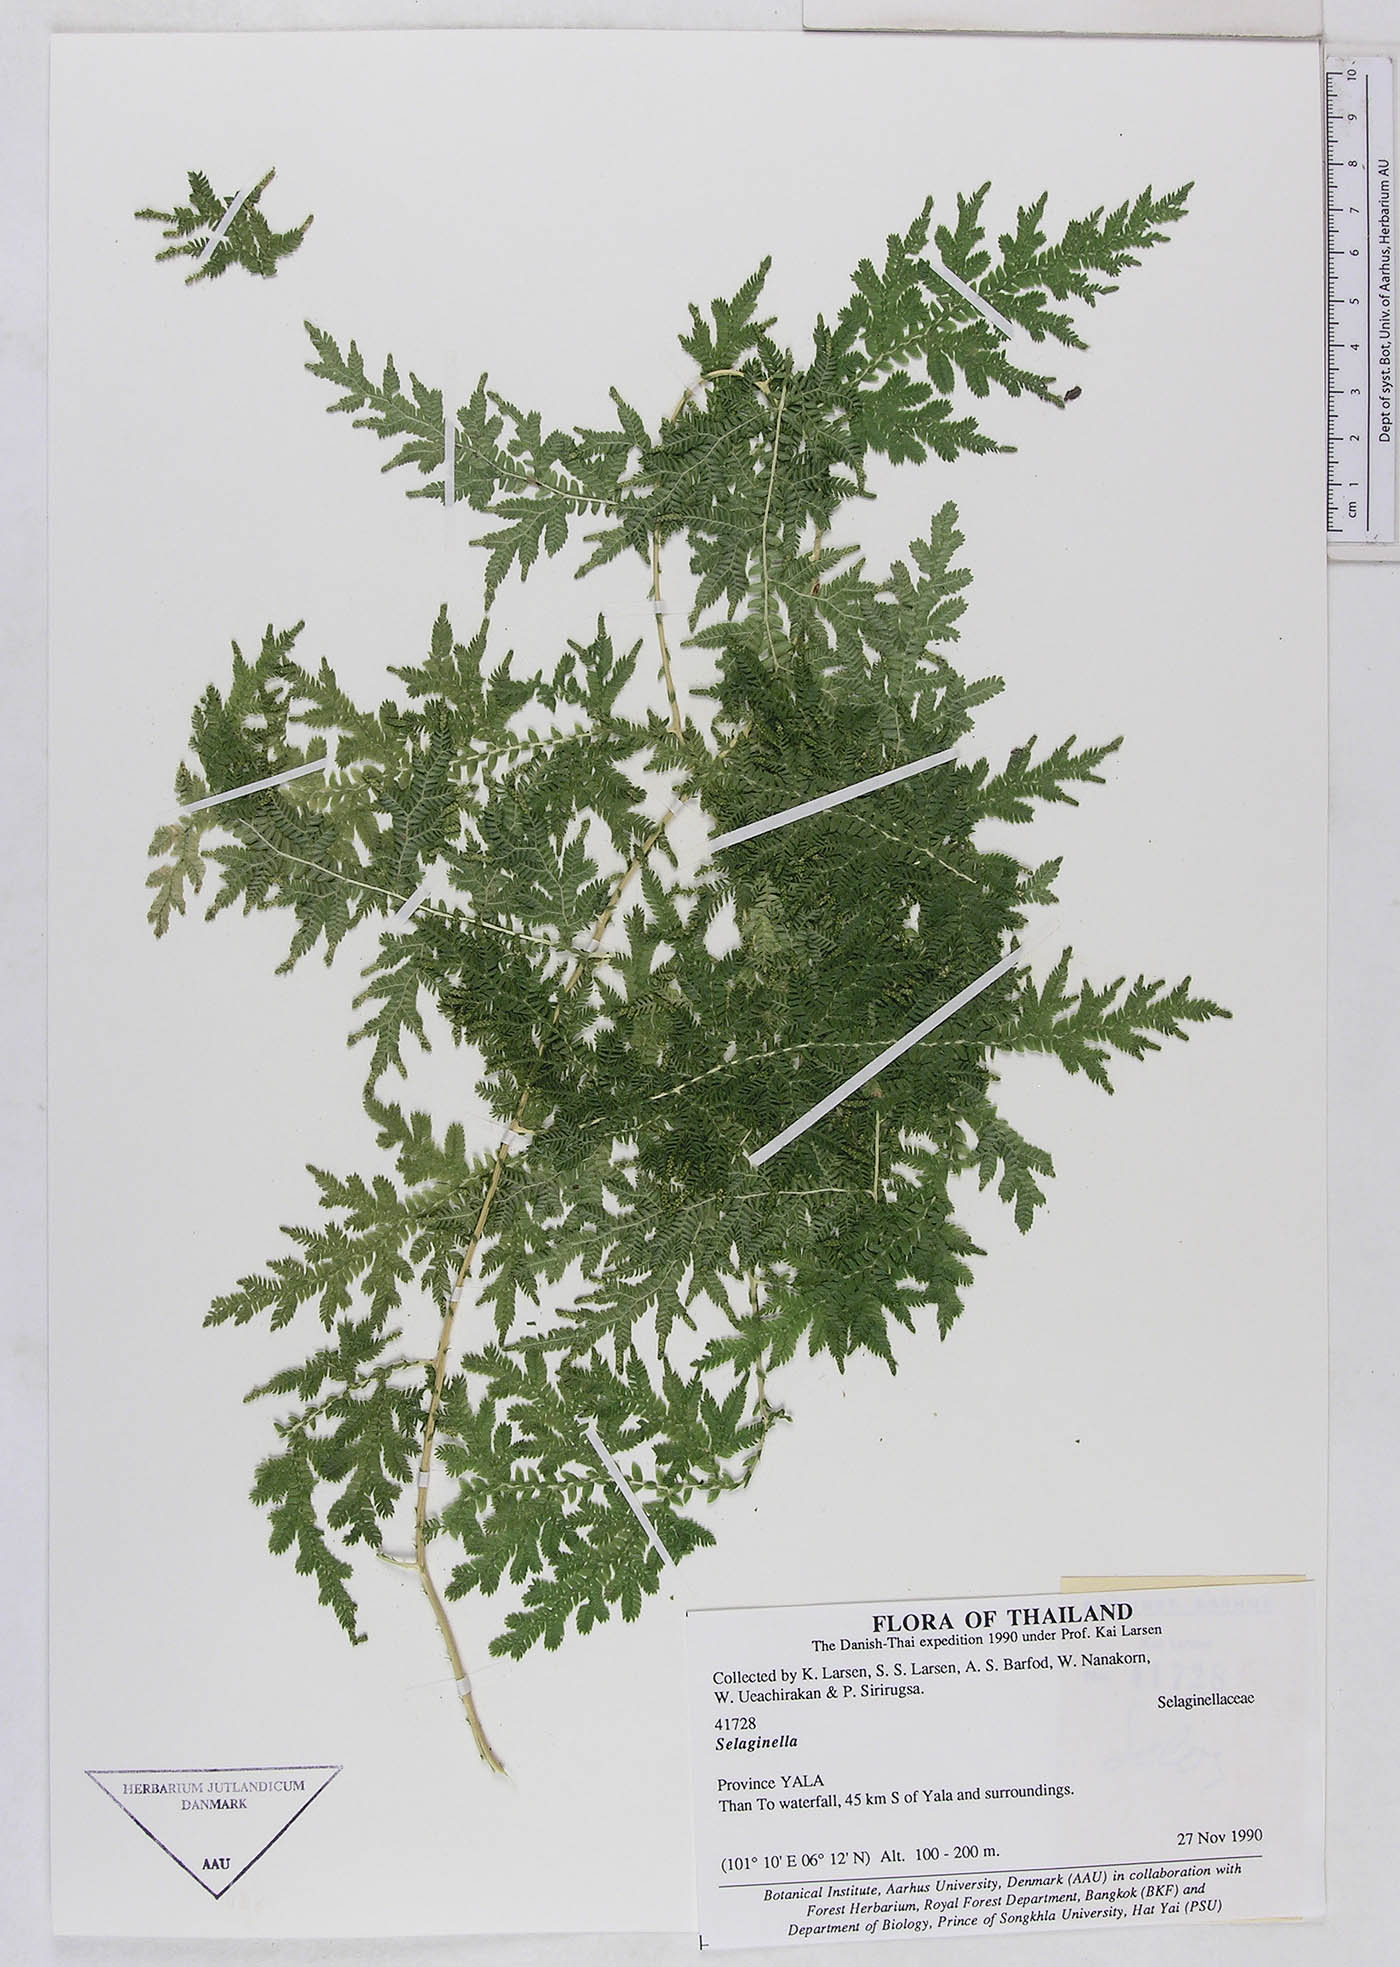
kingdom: Plantae
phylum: Tracheophyta
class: Lycopodiopsida
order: Selaginellales
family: Selaginellaceae
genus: Selaginella
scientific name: Selaginella
